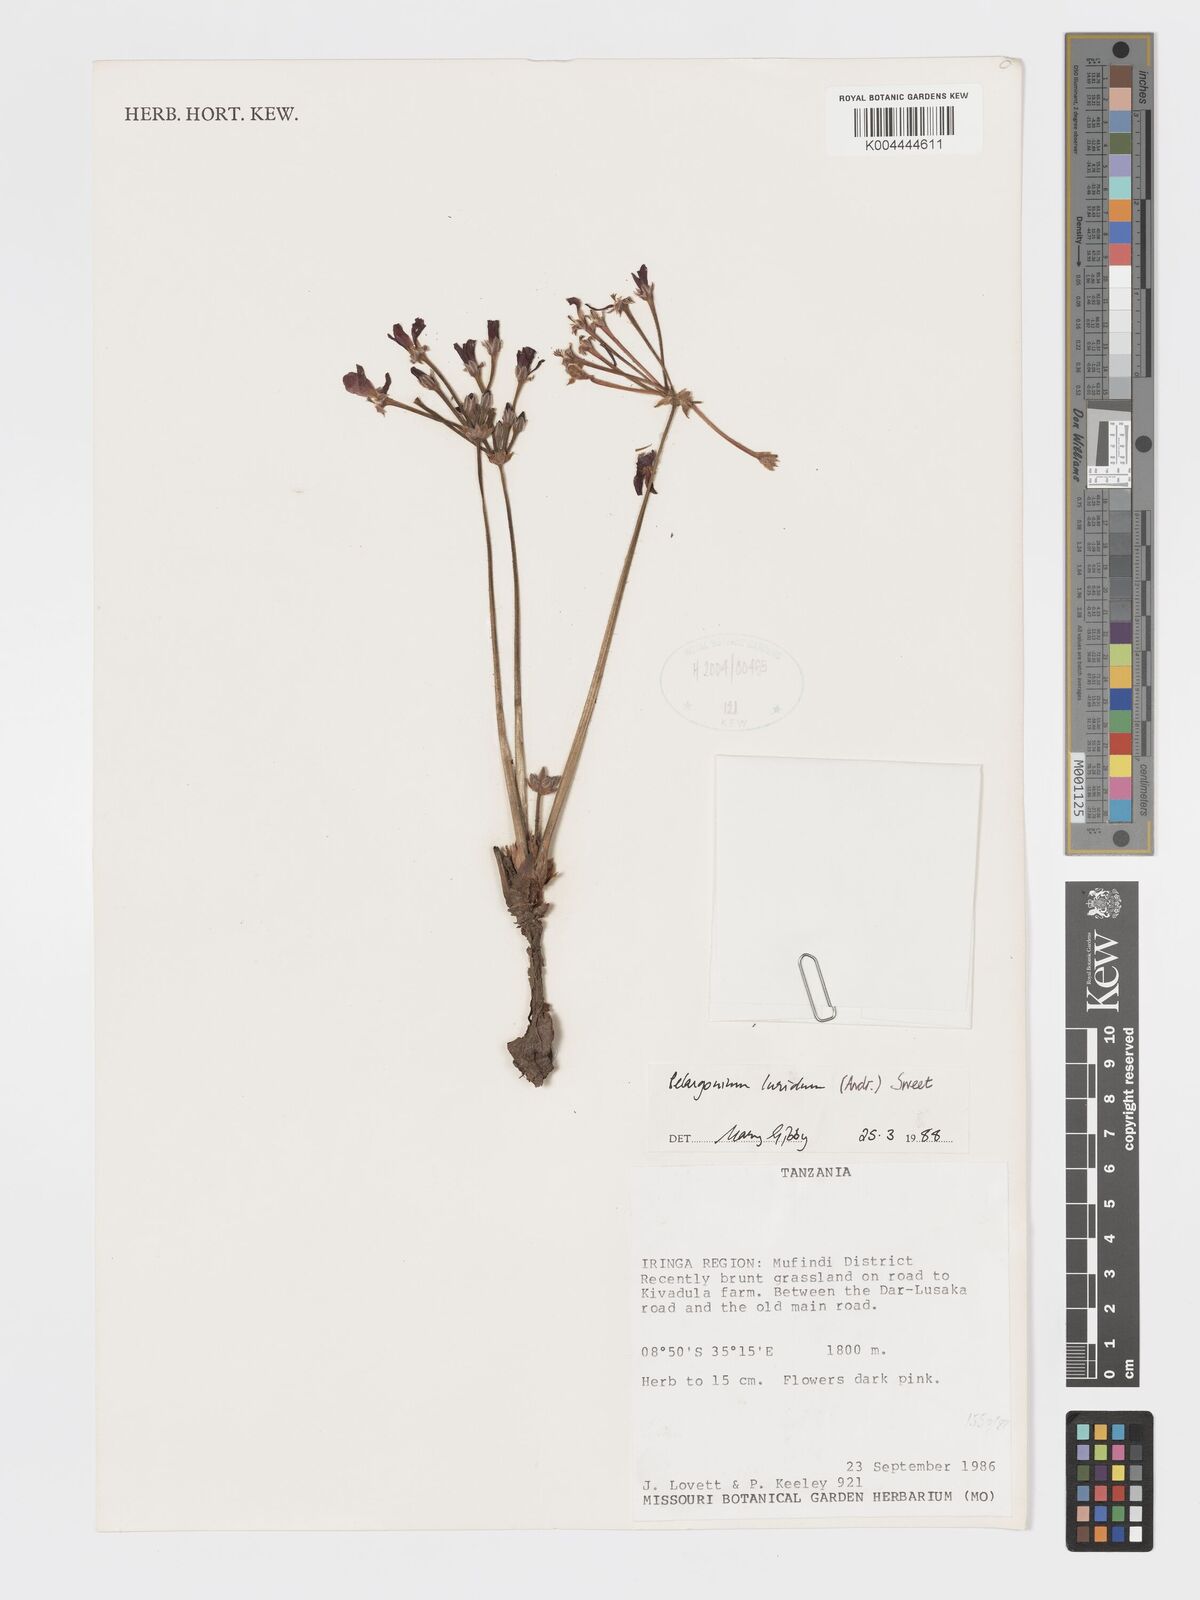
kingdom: Plantae
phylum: Tracheophyta
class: Magnoliopsida
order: Geraniales
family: Geraniaceae
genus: Pelargonium
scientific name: Pelargonium luridum
